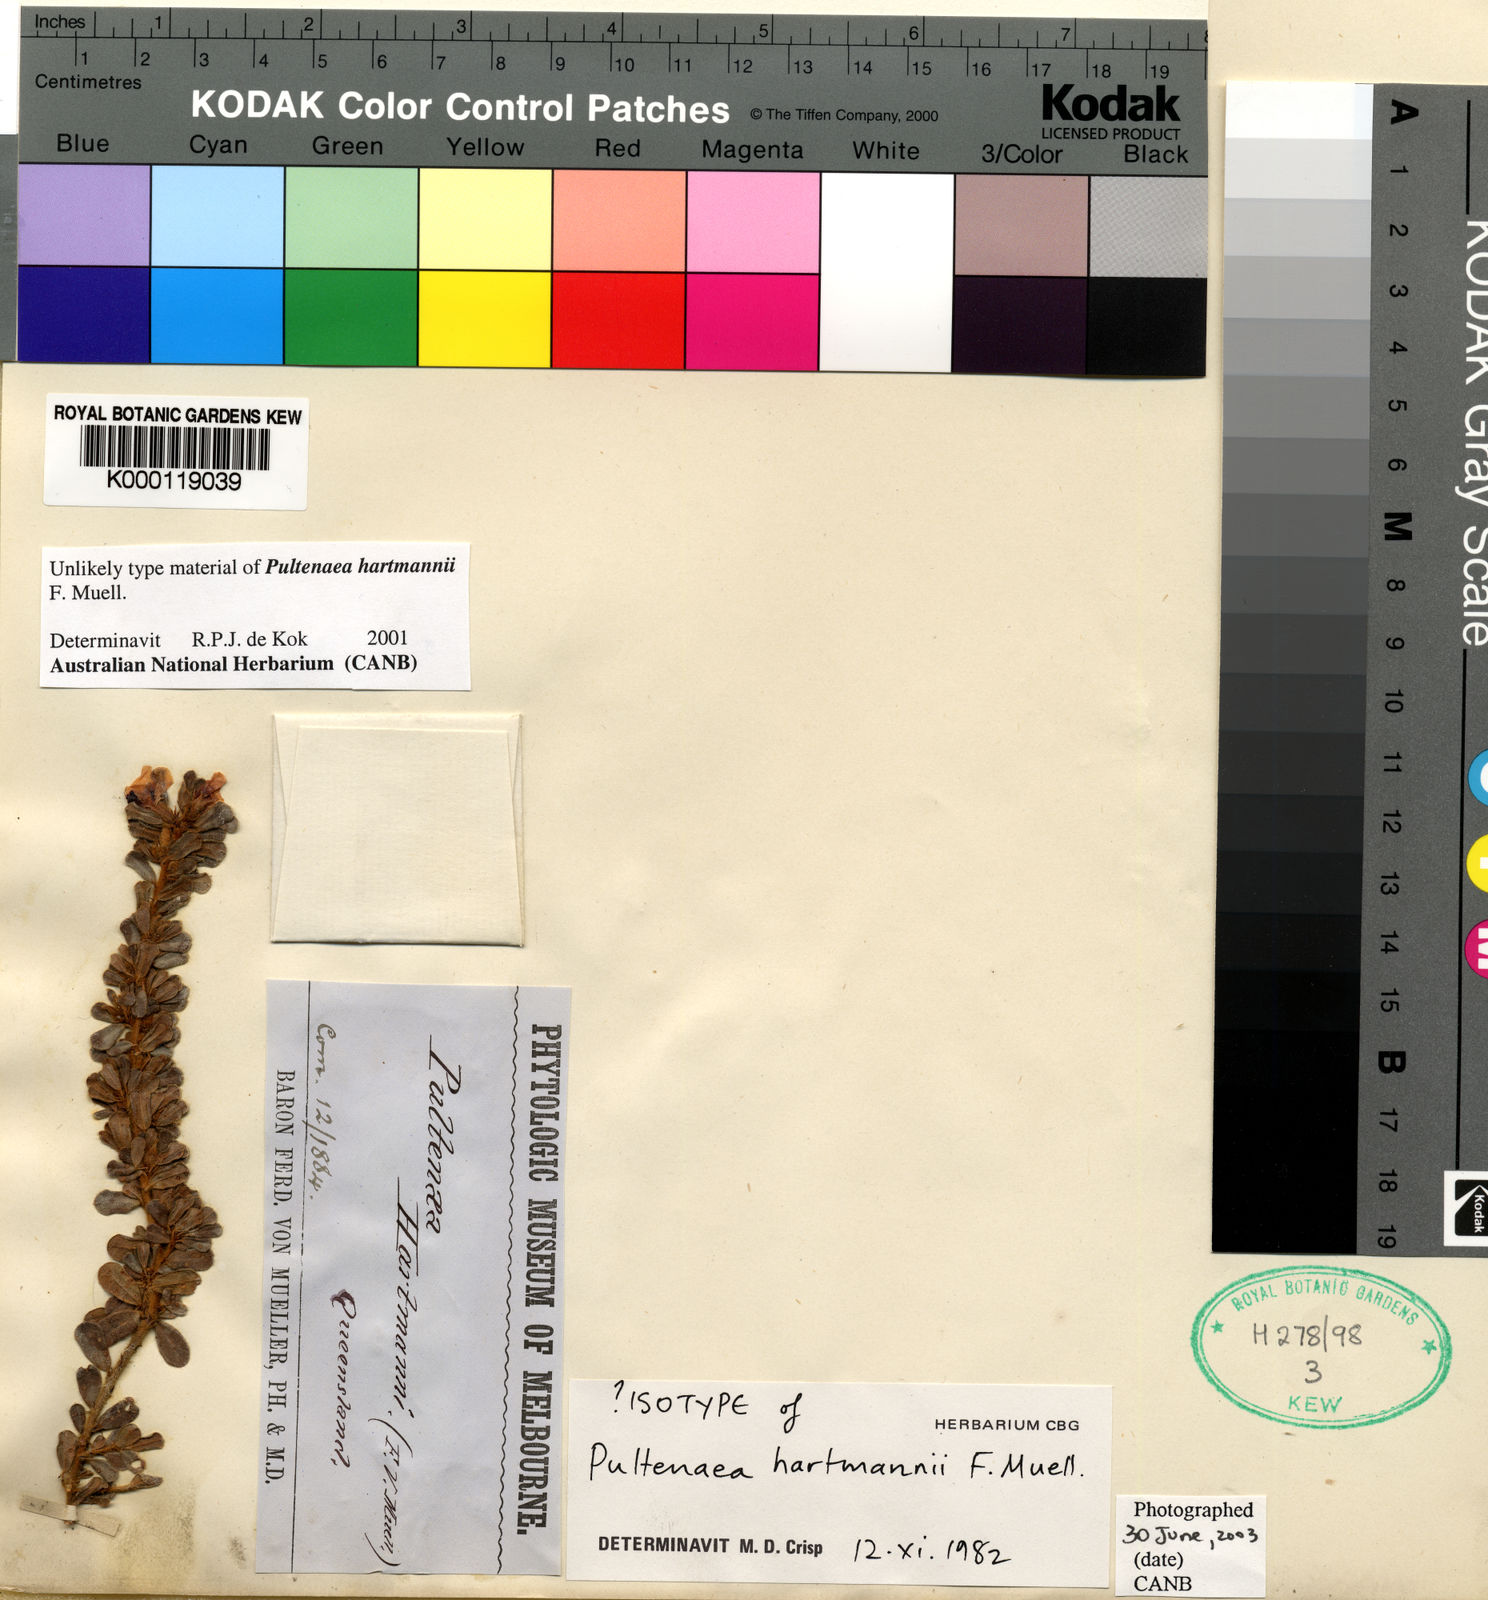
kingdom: Plantae
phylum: Tracheophyta
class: Magnoliopsida
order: Fabales
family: Fabaceae
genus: Pultenaea
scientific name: Pultenaea hartmannii
